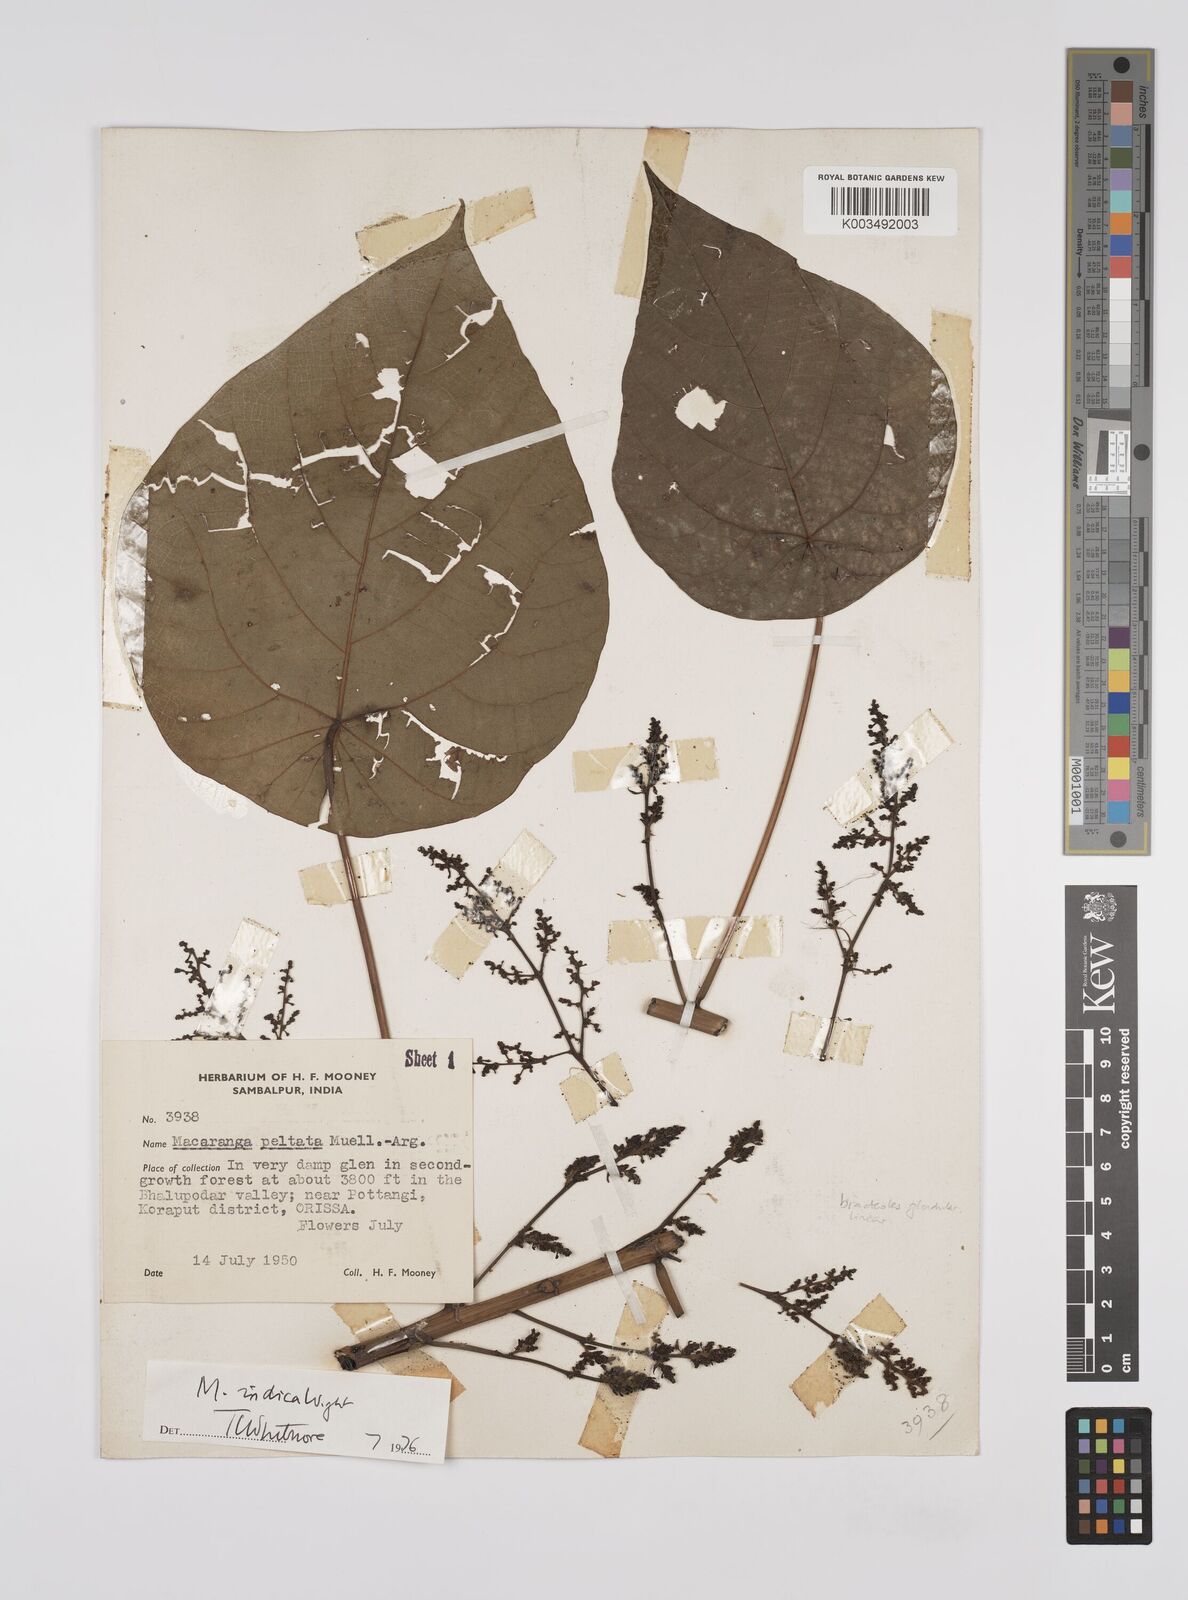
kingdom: Plantae
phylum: Tracheophyta
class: Magnoliopsida
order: Malpighiales
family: Euphorbiaceae
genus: Macaranga
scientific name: Macaranga indica
